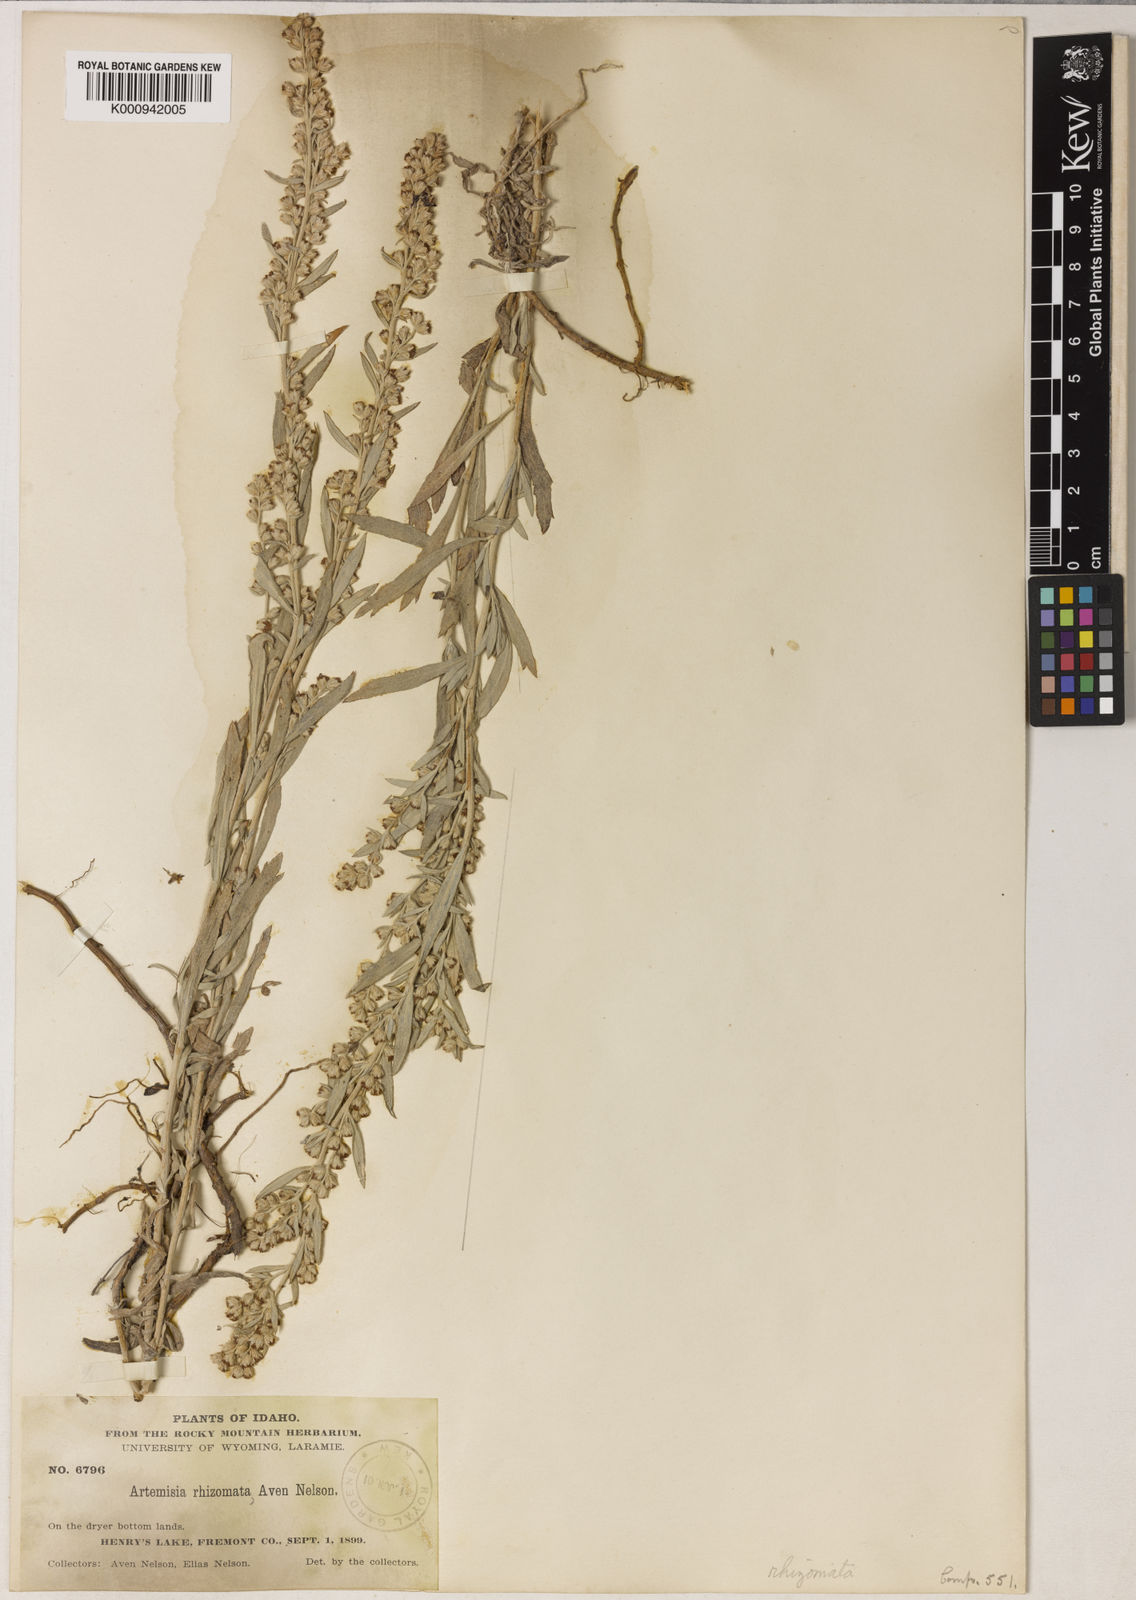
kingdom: Plantae
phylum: Tracheophyta
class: Magnoliopsida
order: Asterales
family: Asteraceae
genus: Artemisia
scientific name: Artemisia ludoviciana
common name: Western mugwort
